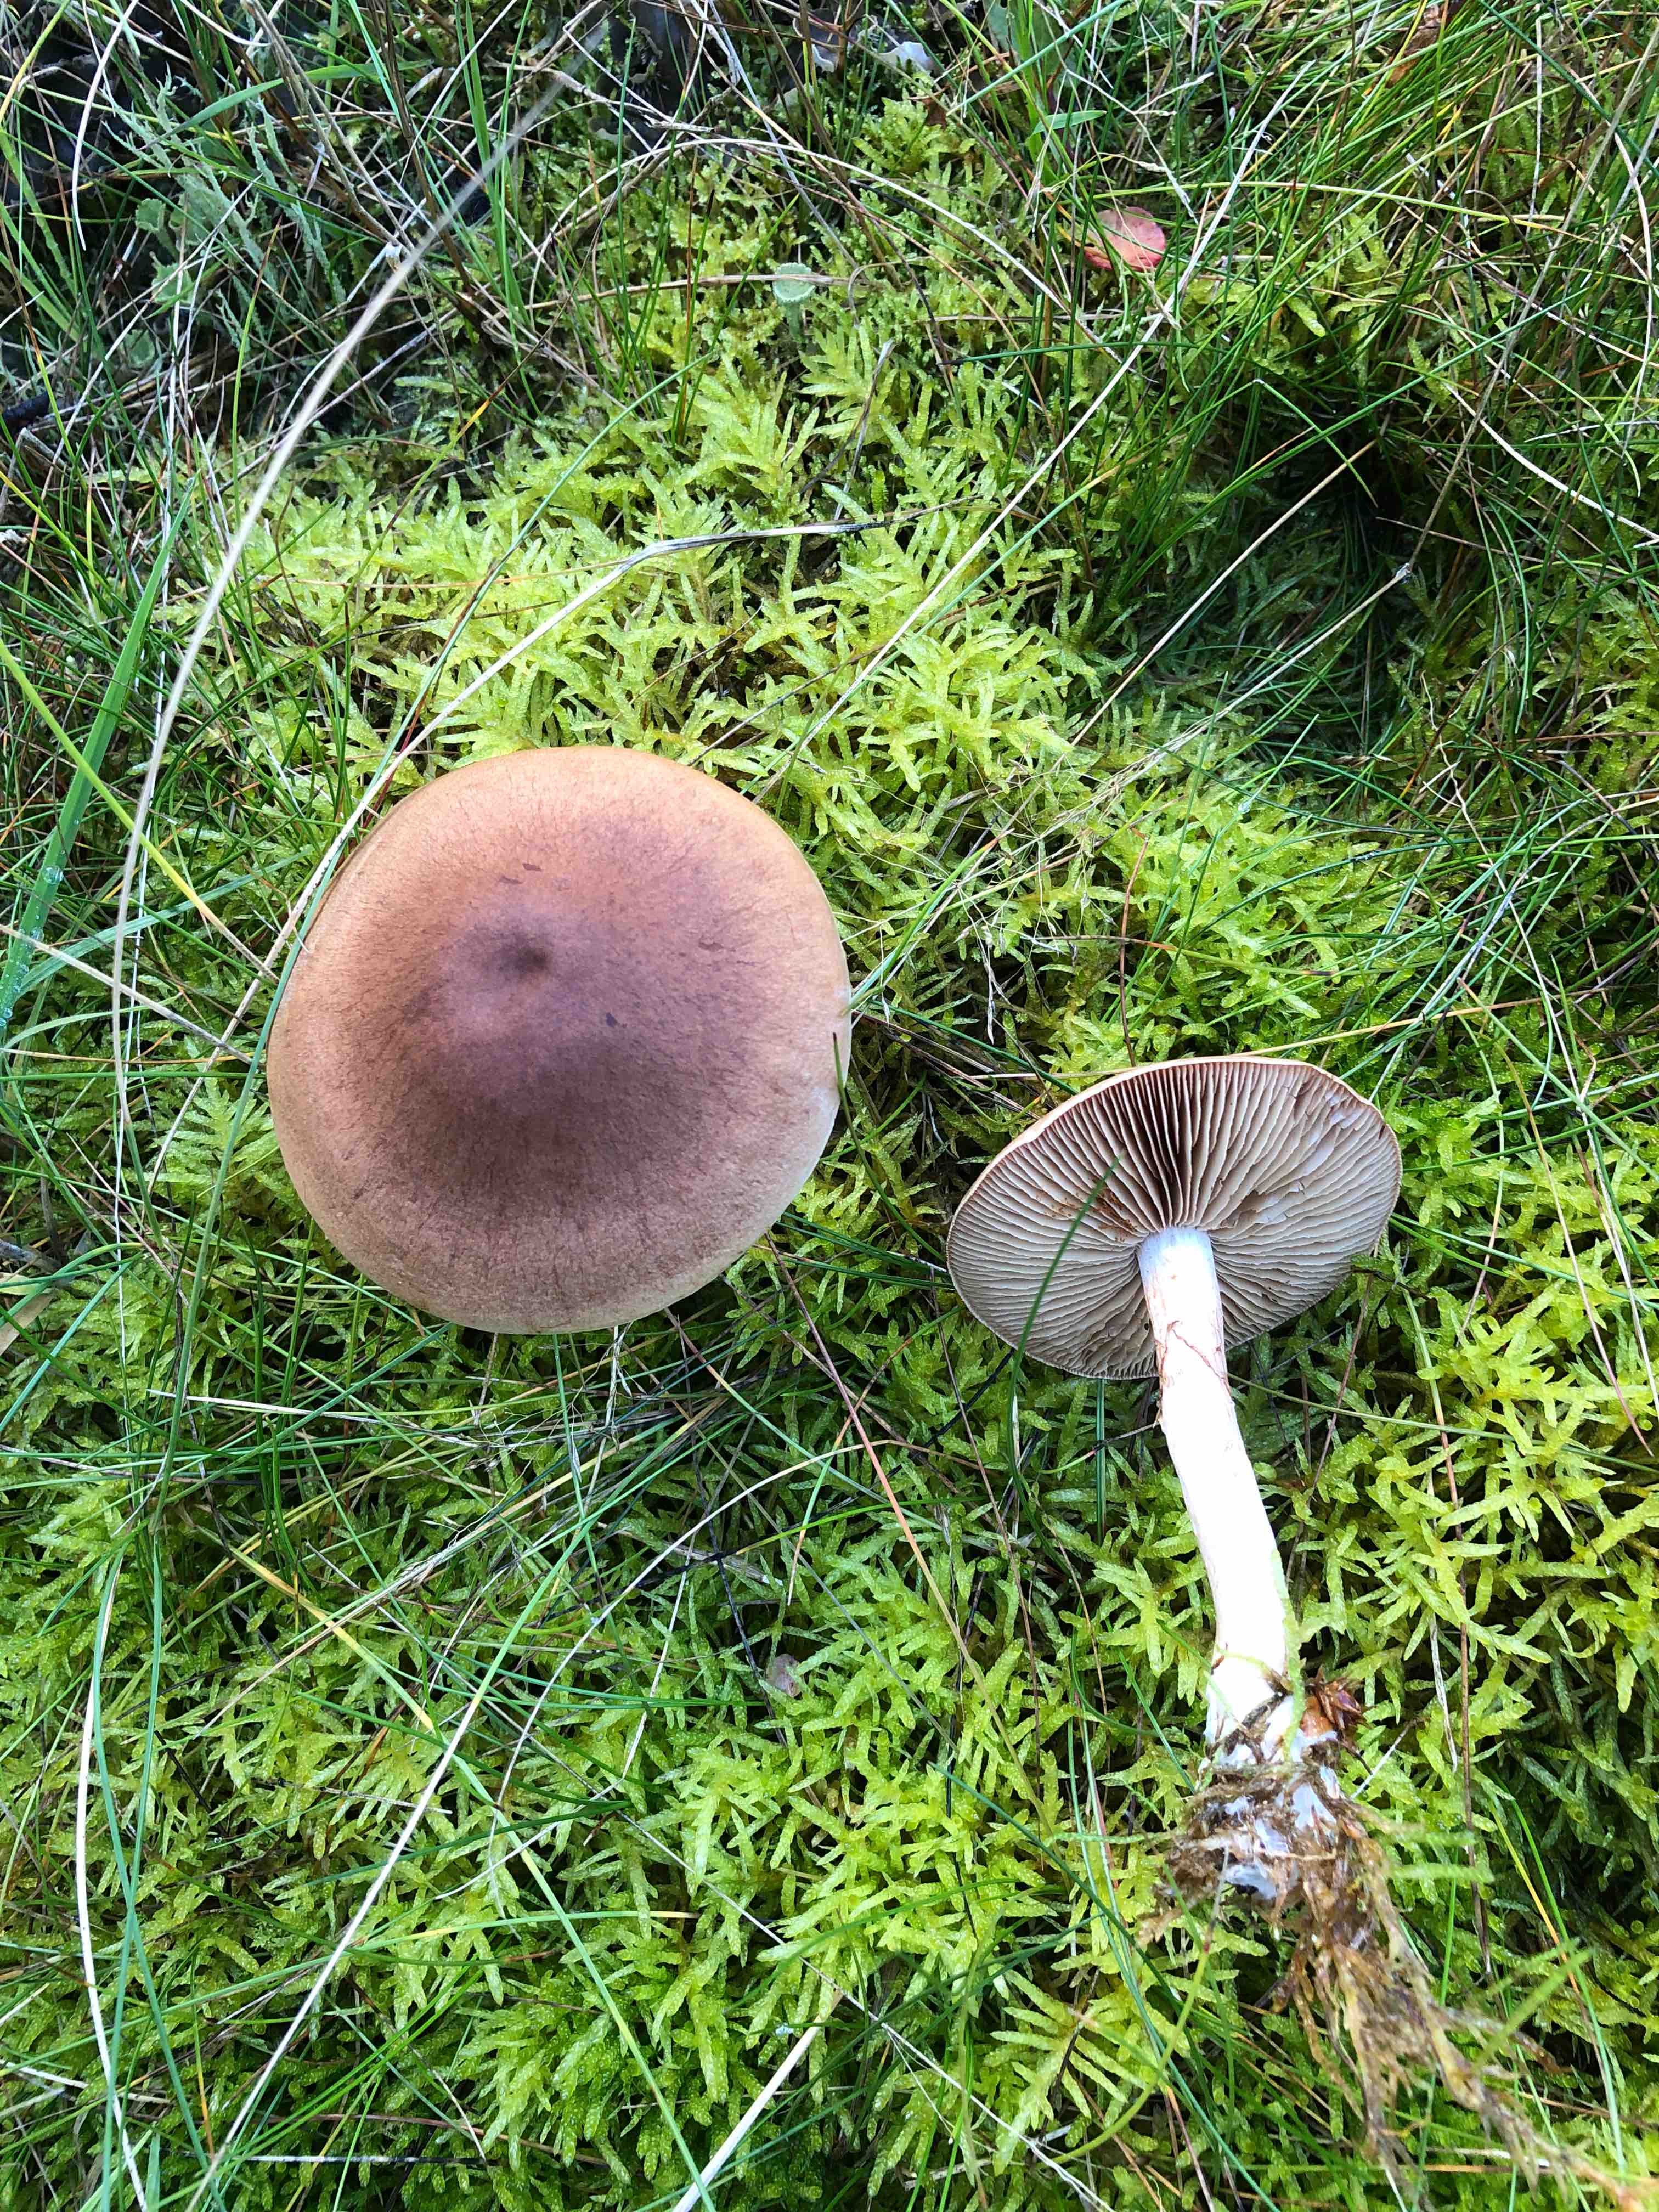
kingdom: Fungi
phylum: Basidiomycota
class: Agaricomycetes
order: Agaricales
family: Cortinariaceae
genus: Cortinarius
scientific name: Cortinarius
